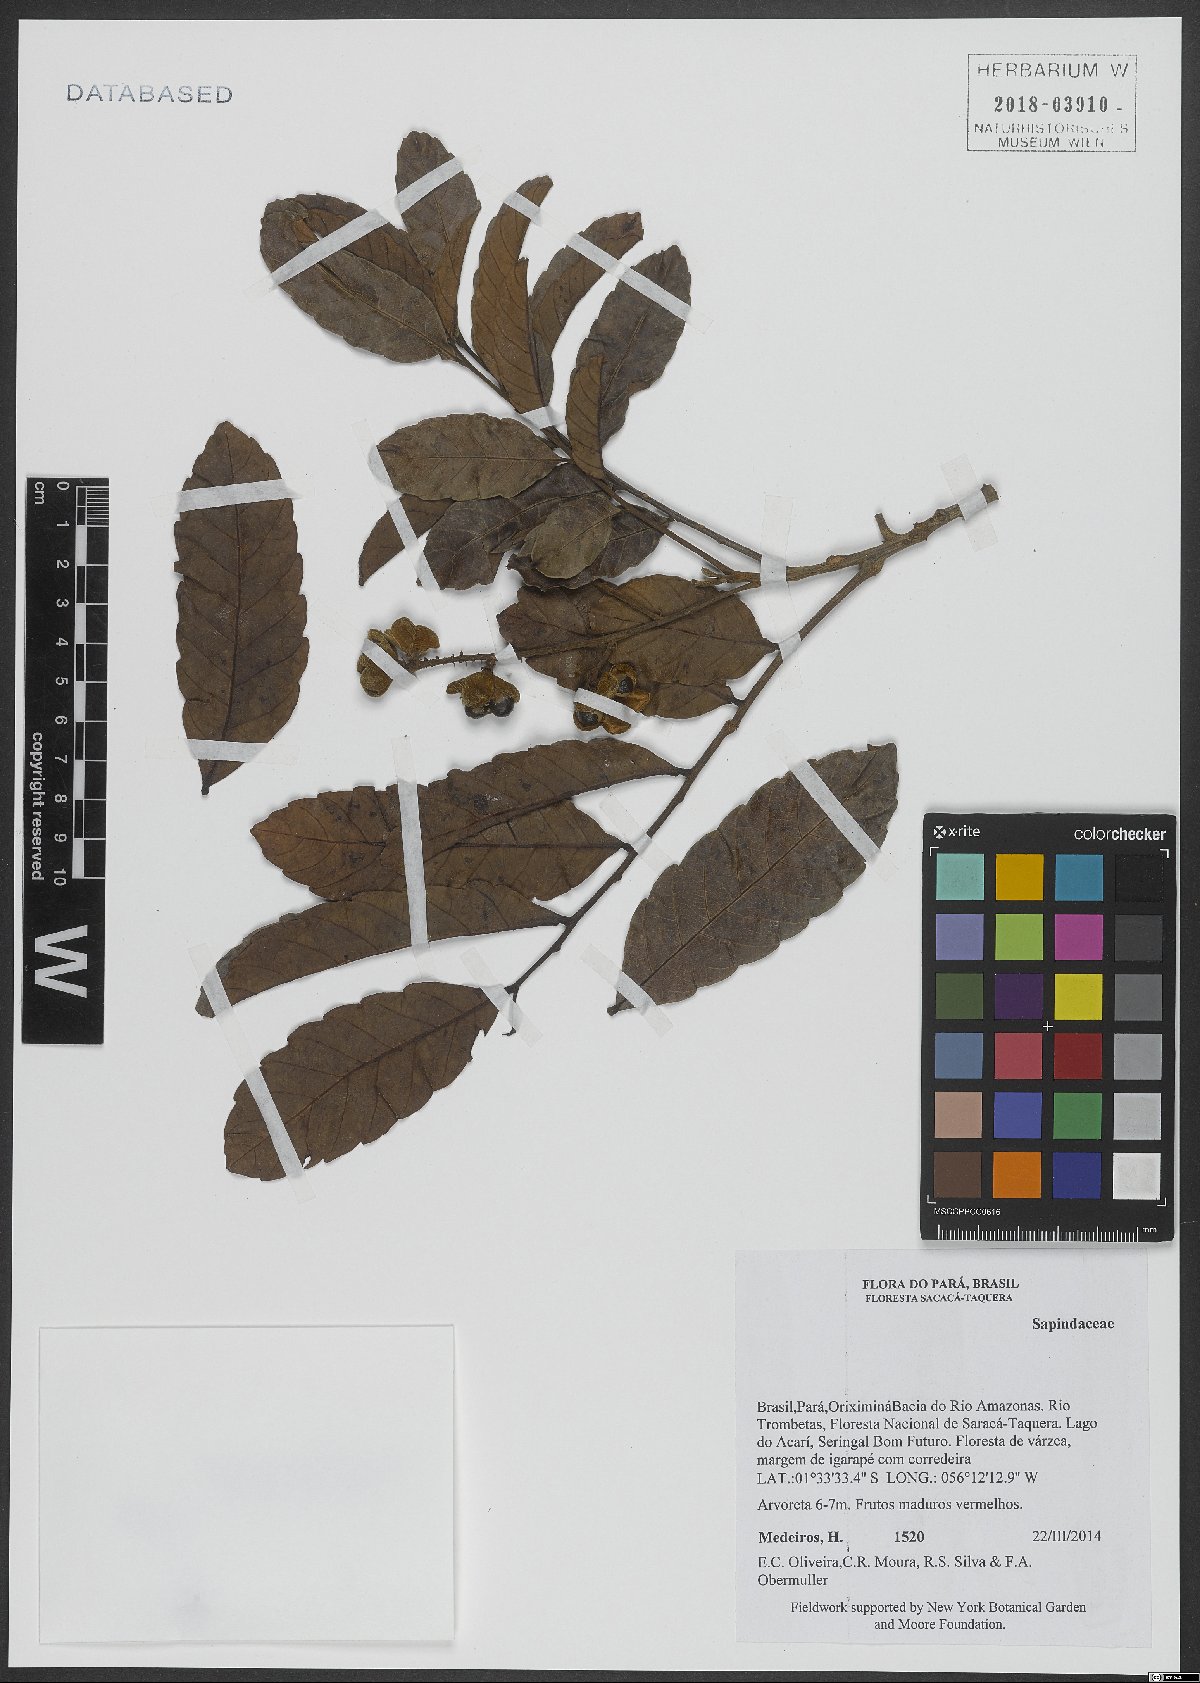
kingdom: Plantae
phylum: Tracheophyta
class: Magnoliopsida
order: Sapindales
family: Sapindaceae
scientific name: Sapindaceae
